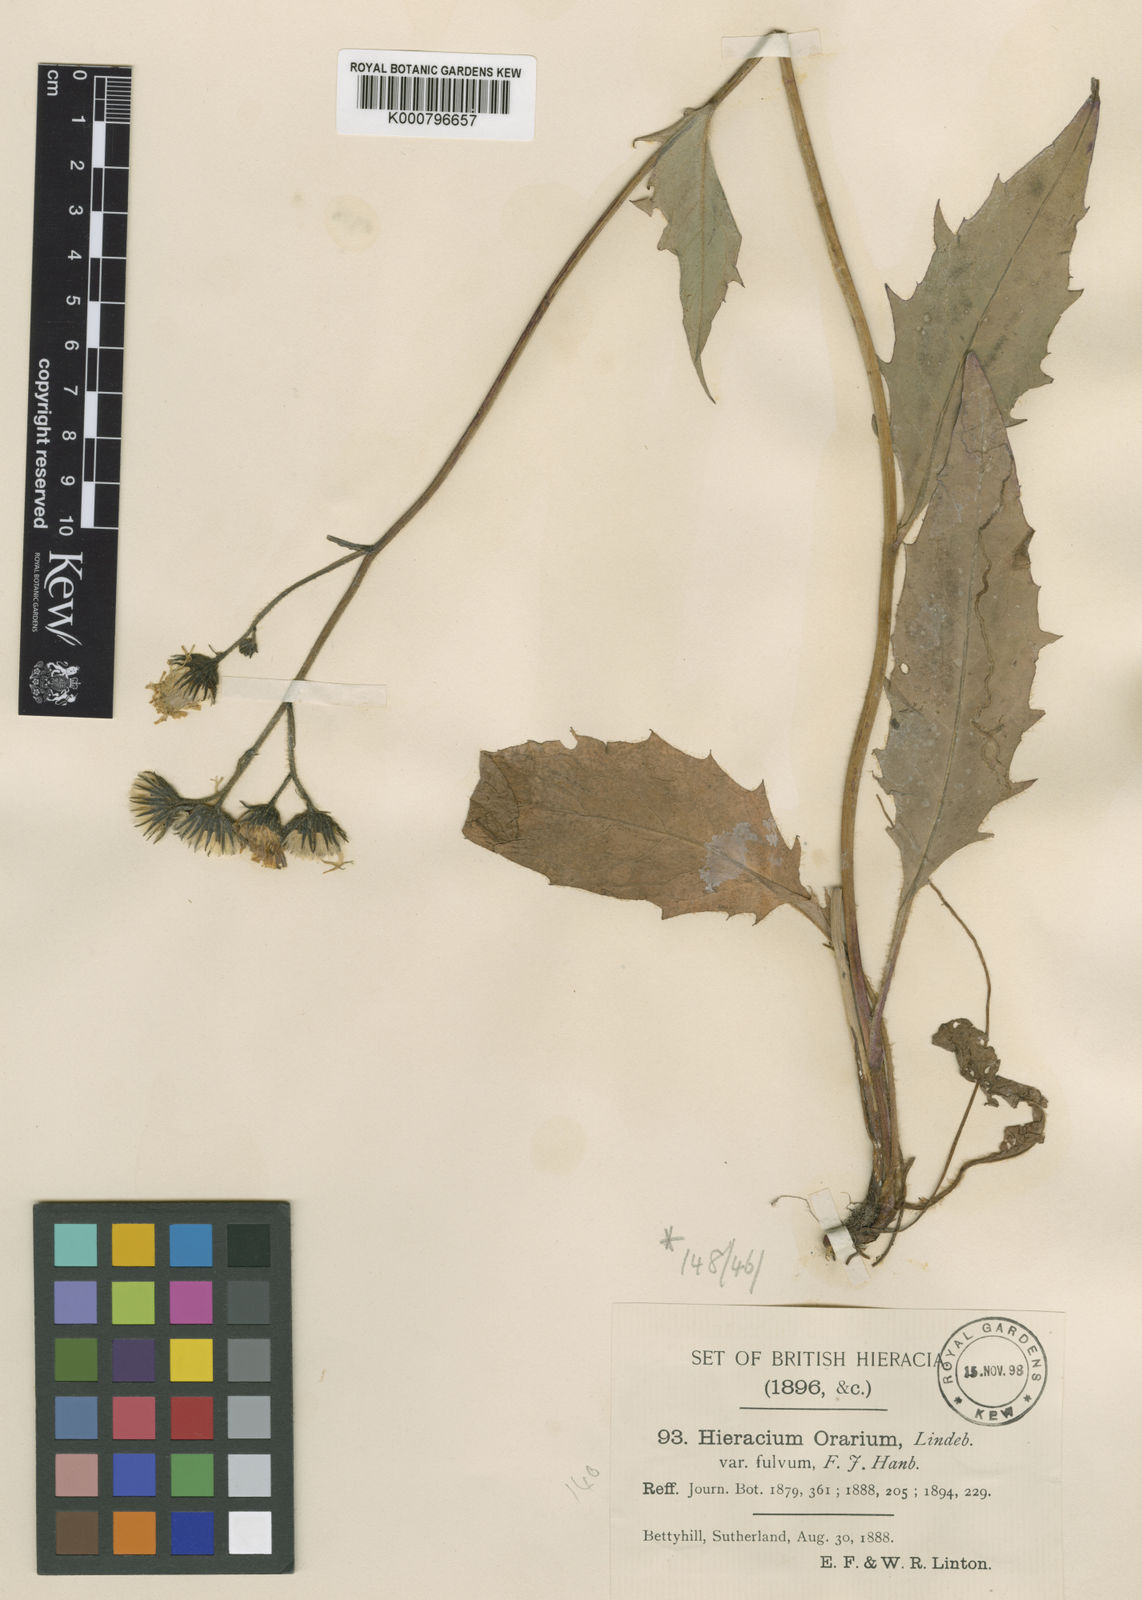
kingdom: Plantae
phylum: Tracheophyta
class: Magnoliopsida
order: Asterales
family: Asteraceae
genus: Hieracium
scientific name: Hieracium
